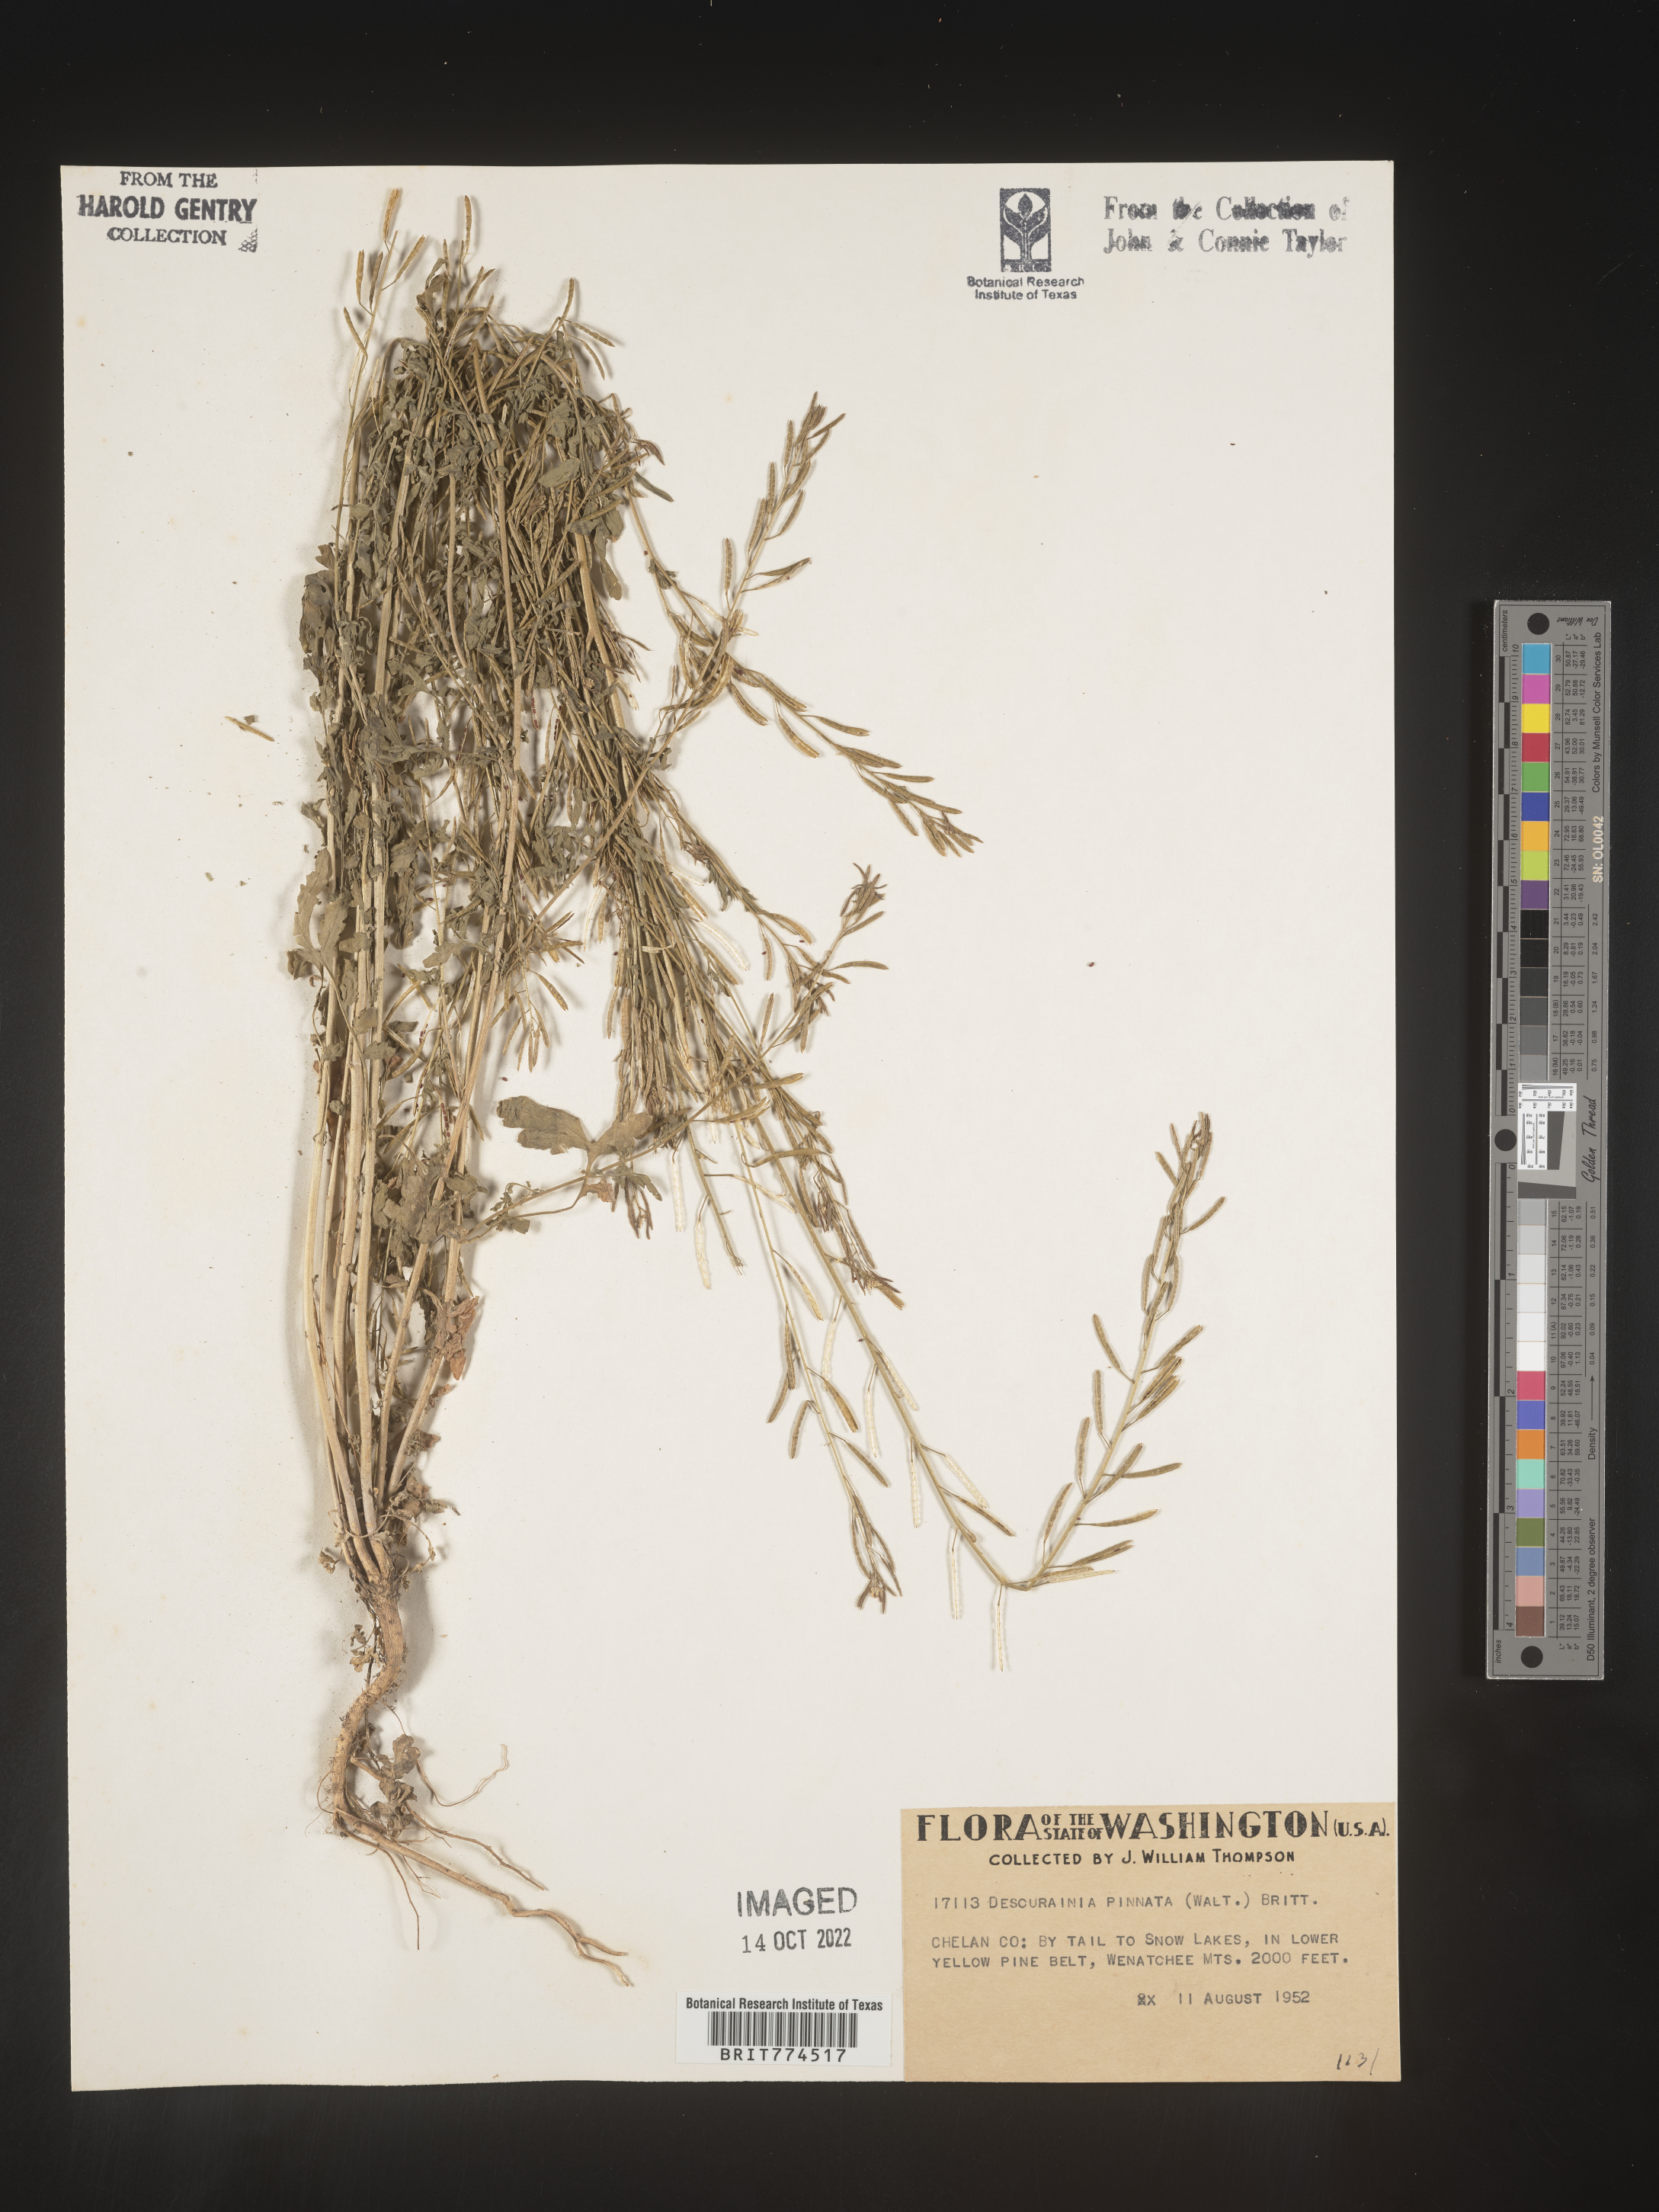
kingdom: Plantae
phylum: Tracheophyta
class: Magnoliopsida
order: Brassicales
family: Brassicaceae
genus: Descurainia
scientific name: Descurainia pinnata
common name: Western tansy mustard
